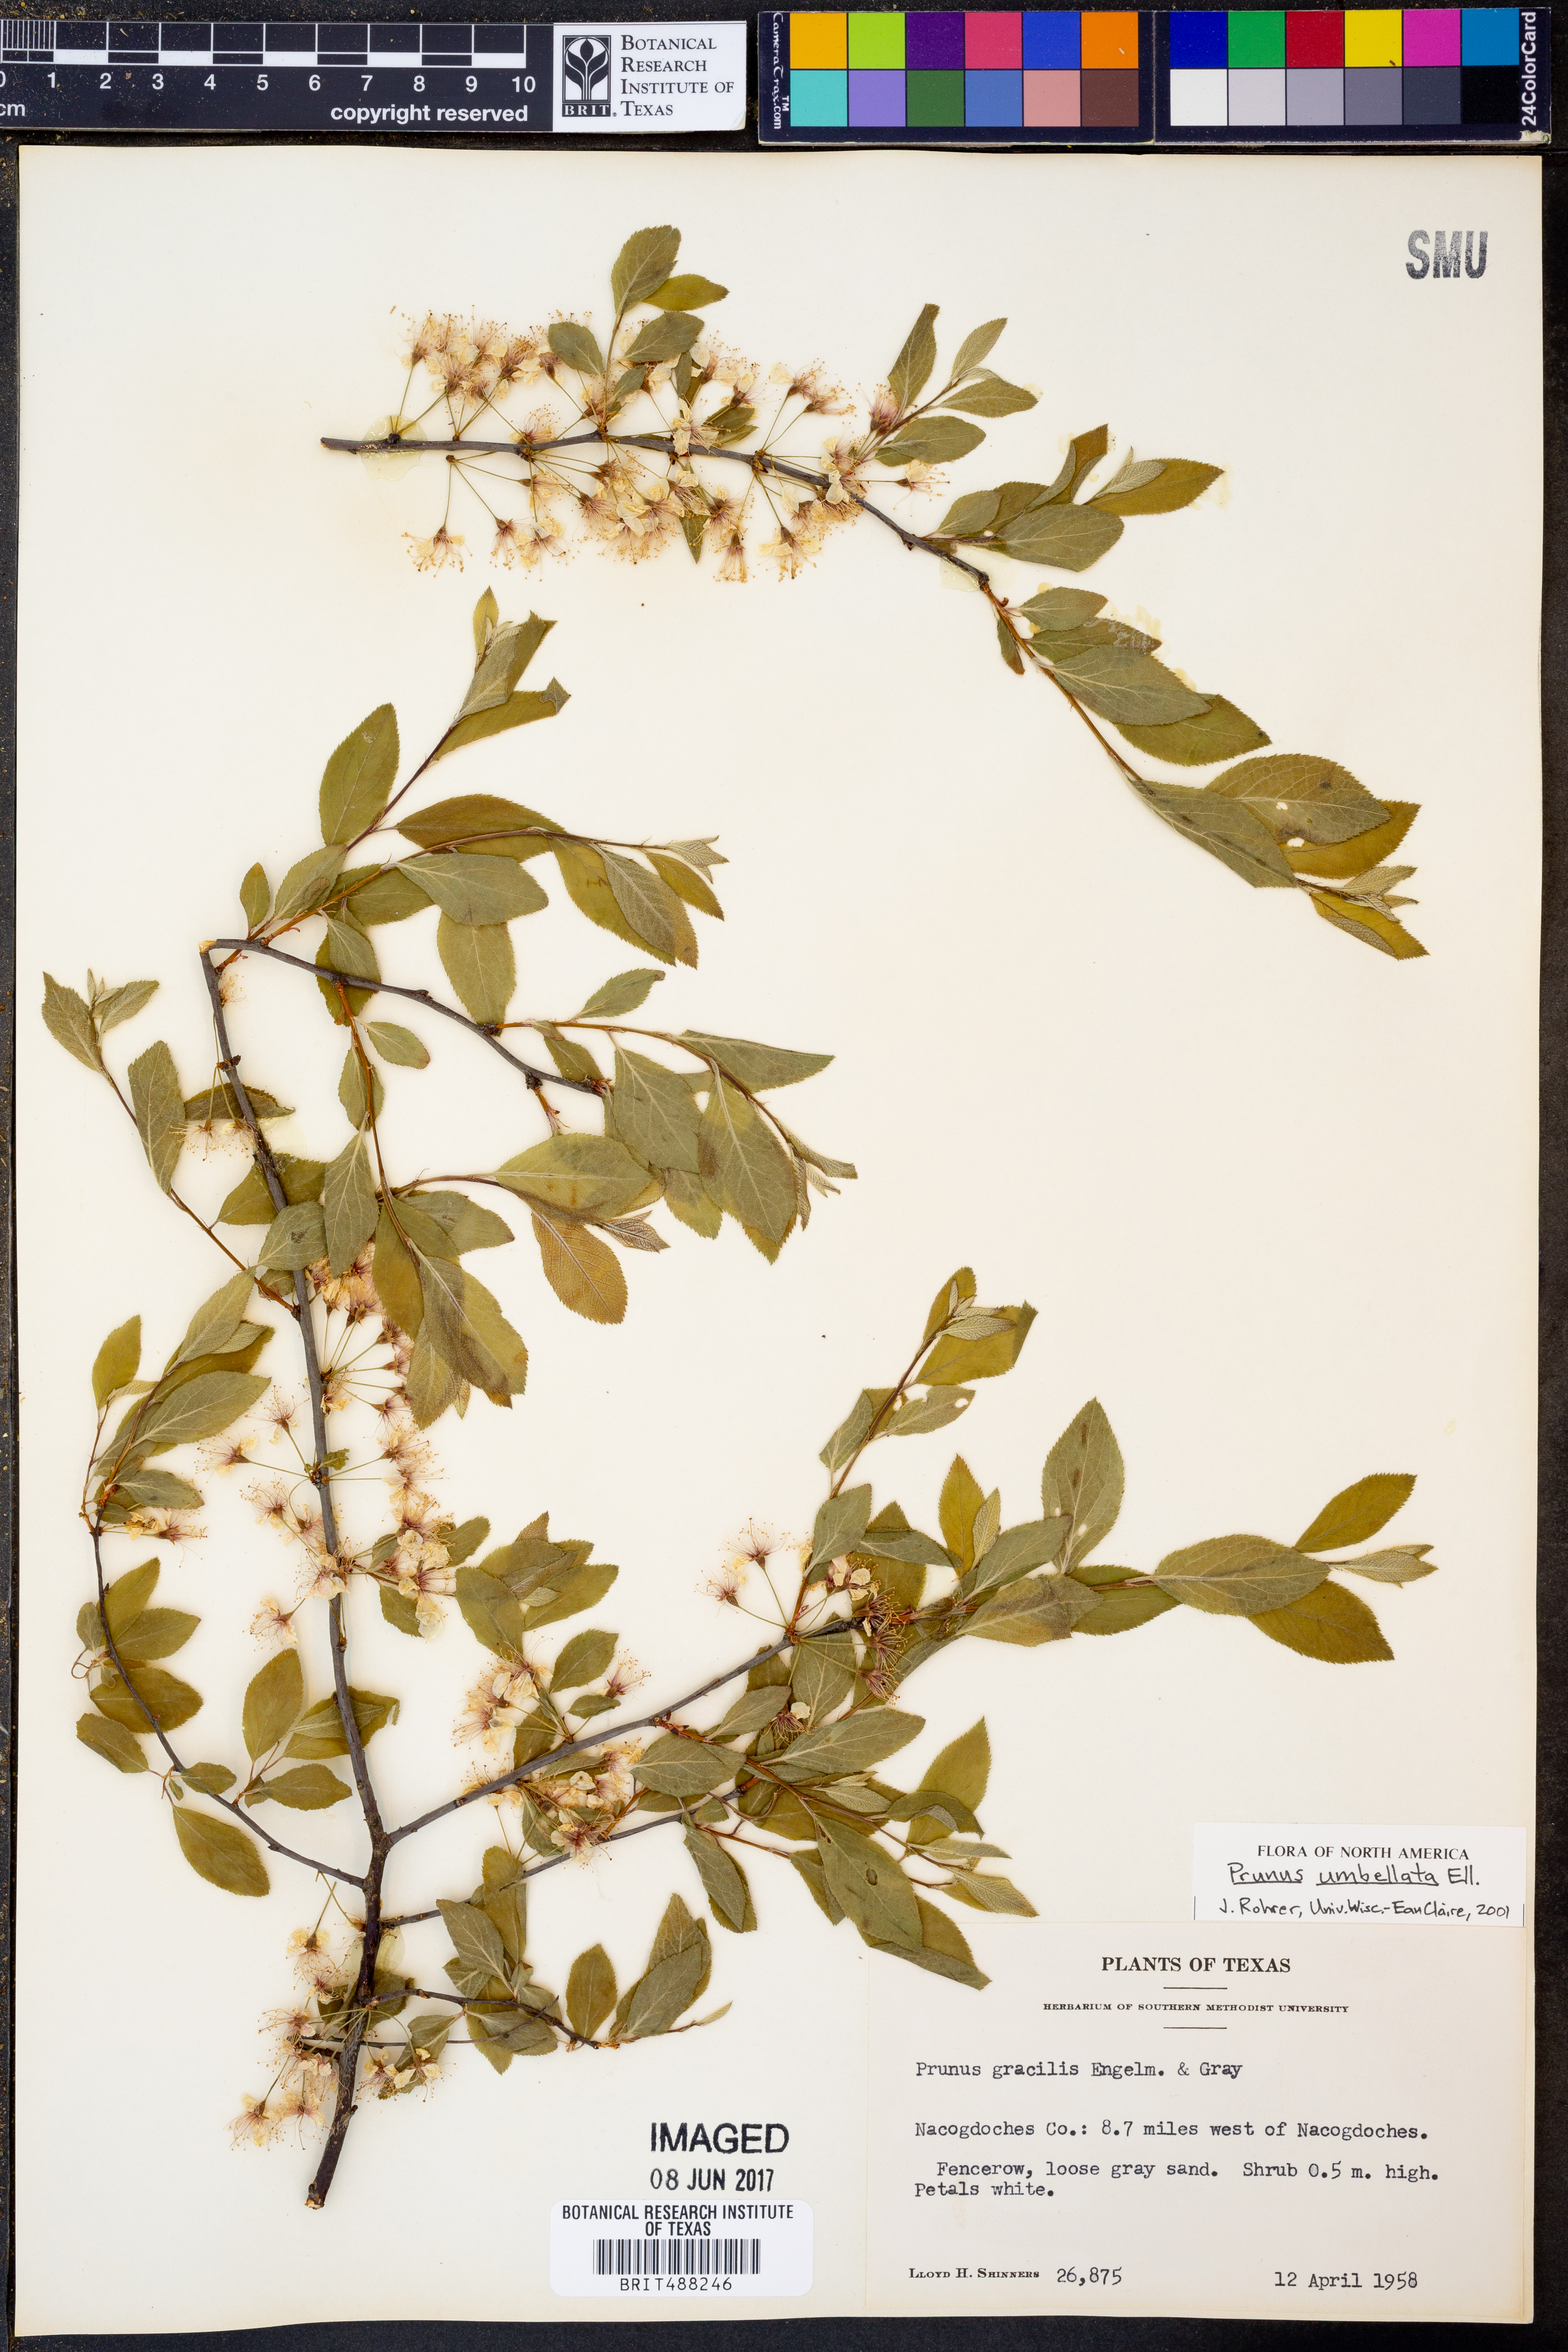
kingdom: Plantae
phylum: Tracheophyta
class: Magnoliopsida
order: Rosales
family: Rosaceae
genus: Prunus
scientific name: Prunus umbellata
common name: Allegheny plum
